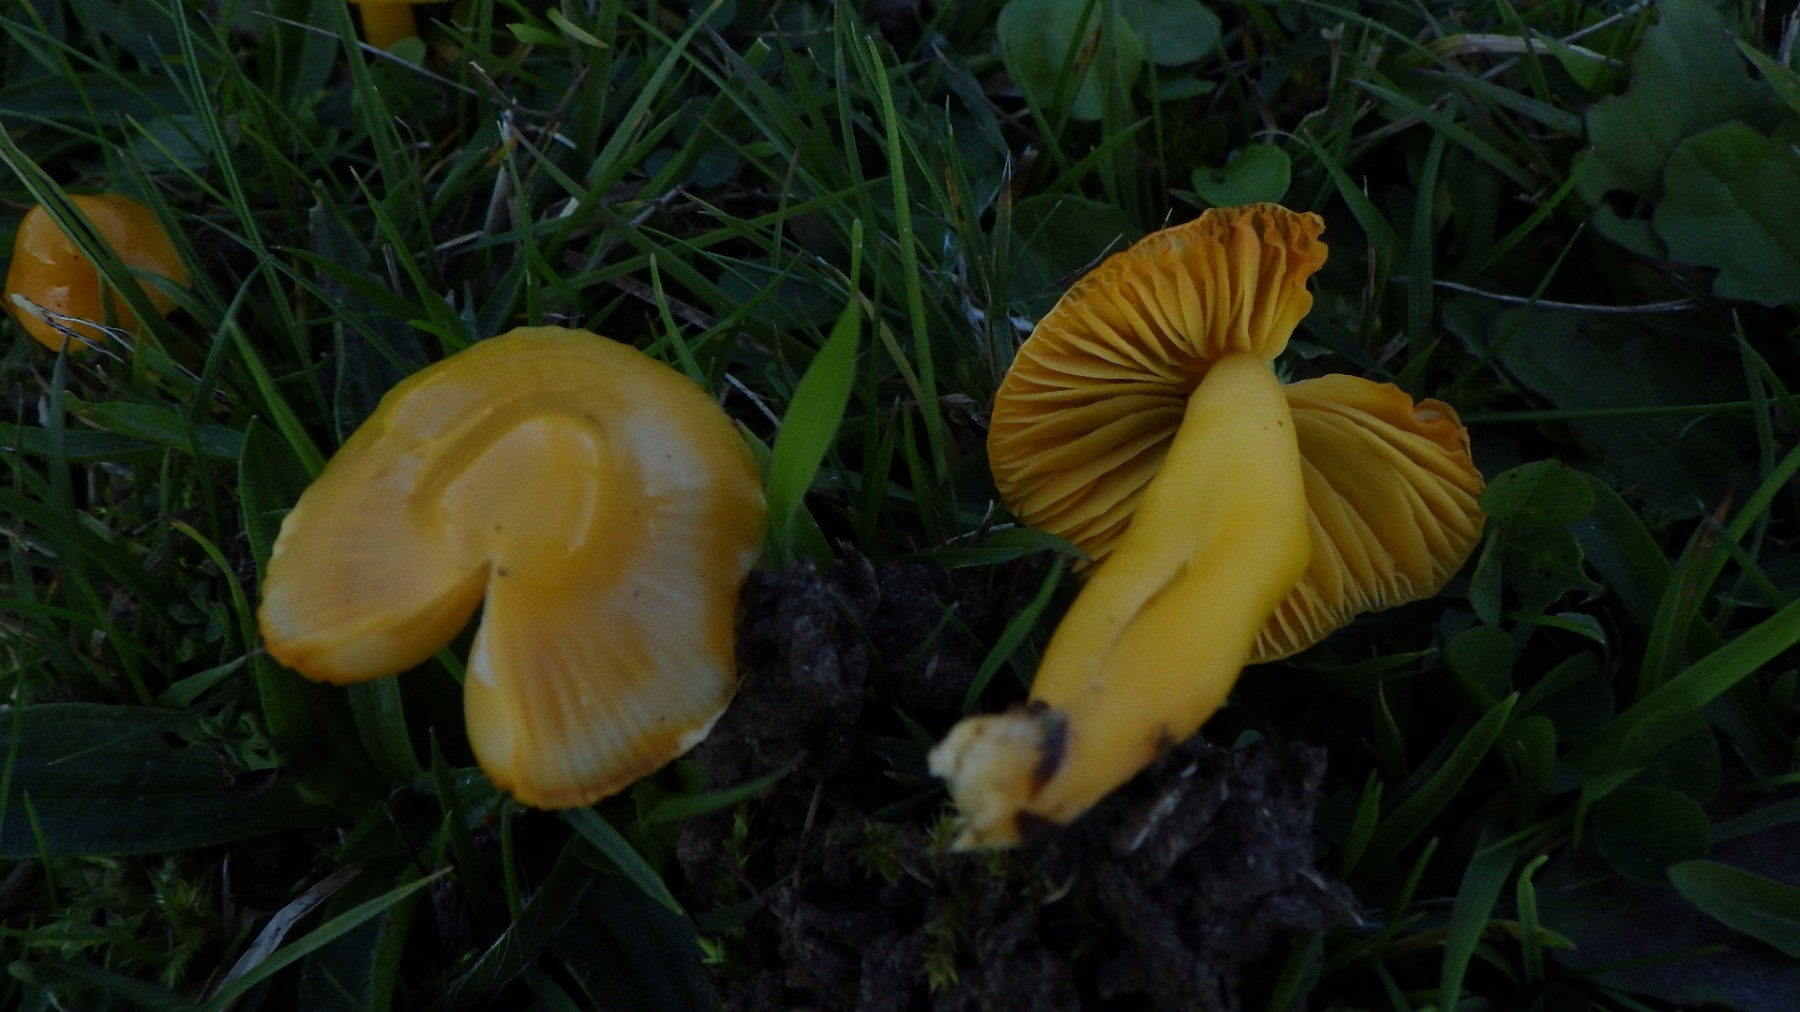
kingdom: Fungi
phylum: Basidiomycota
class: Agaricomycetes
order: Agaricales
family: Hygrophoraceae
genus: Hygrocybe
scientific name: Hygrocybe
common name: vokshat
